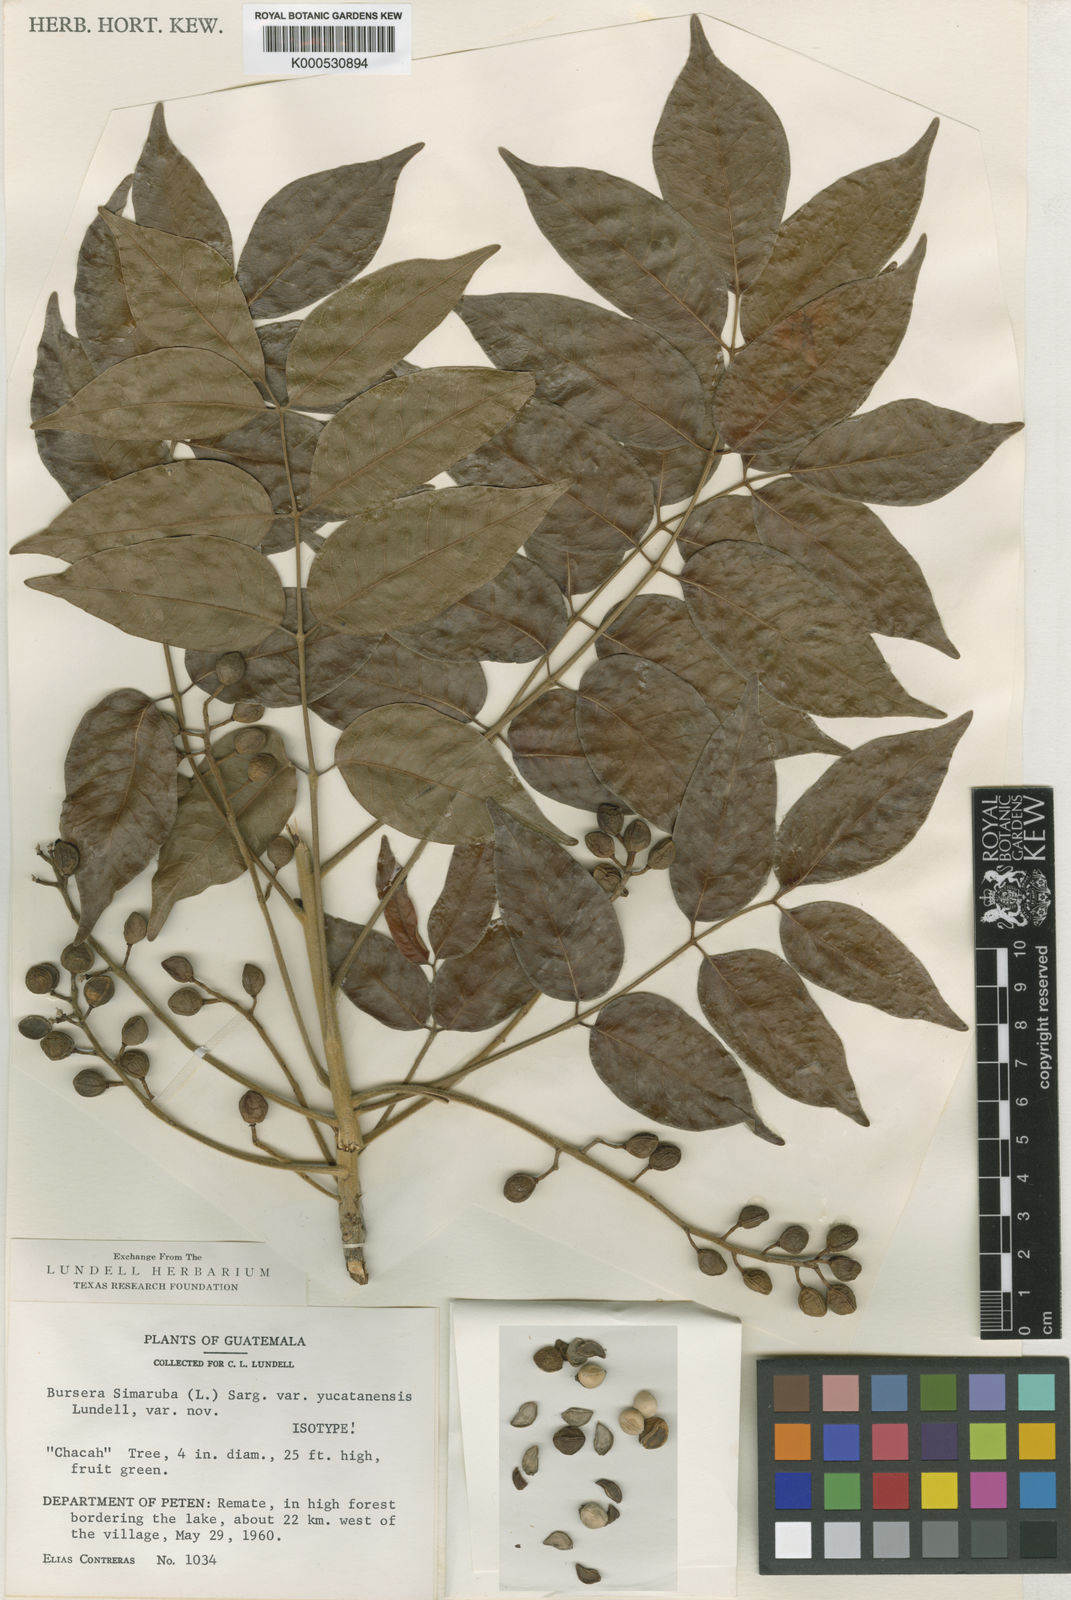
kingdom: Plantae
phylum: Tracheophyta
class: Magnoliopsida
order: Sapindales
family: Burseraceae
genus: Bursera
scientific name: Bursera simaruba
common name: Turpentine tree
